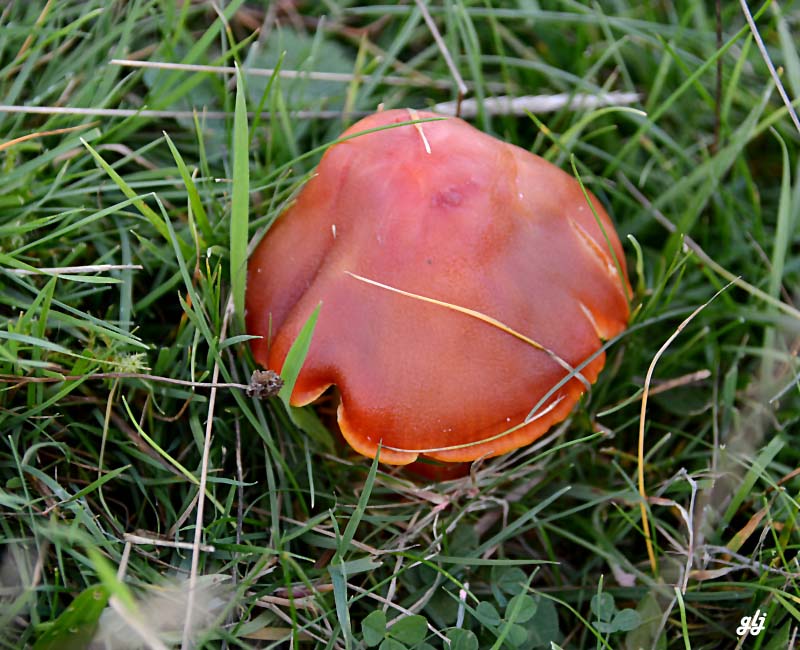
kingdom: Fungi
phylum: Basidiomycota
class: Agaricomycetes
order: Agaricales
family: Hygrophoraceae
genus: Hygrocybe
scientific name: Hygrocybe punicea
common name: skarlagen-vokshat
